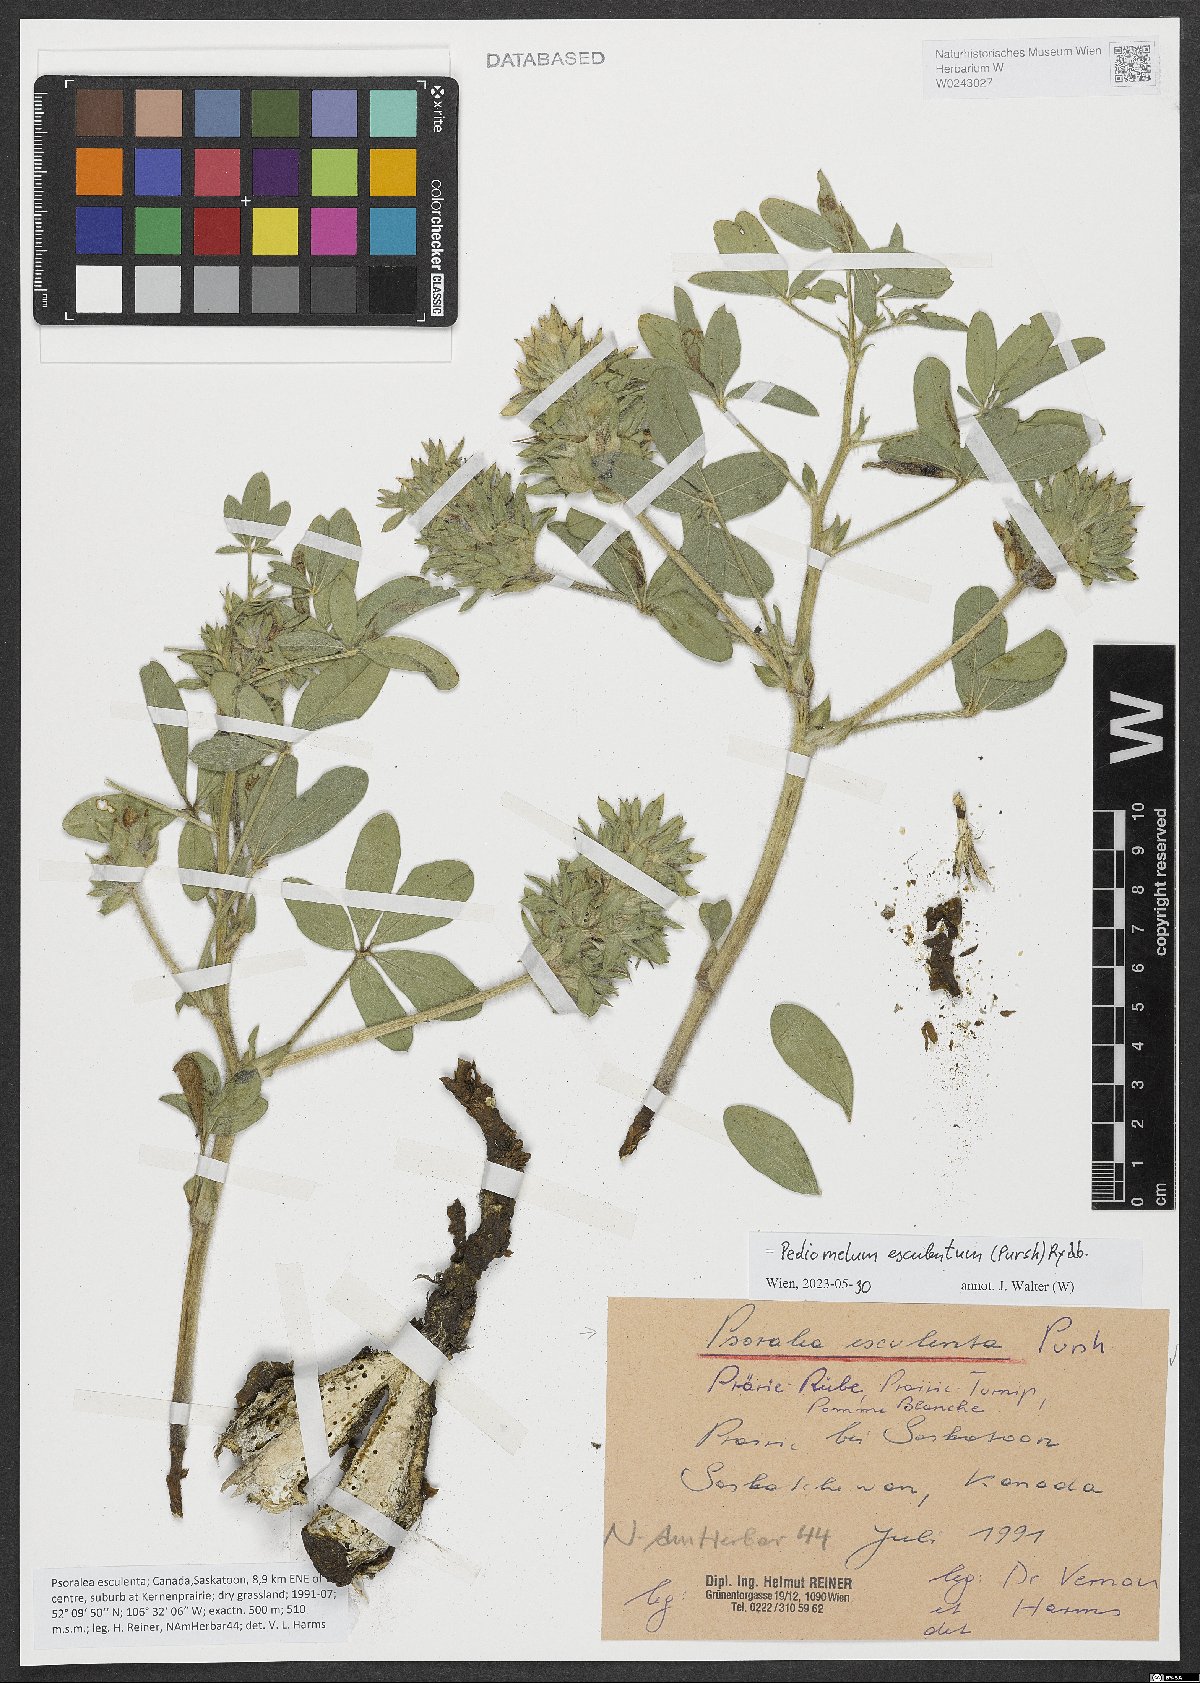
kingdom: Plantae
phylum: Tracheophyta
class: Magnoliopsida
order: Fabales
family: Fabaceae
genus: Pediomelum
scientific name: Pediomelum esculentum
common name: Indian-turnip
